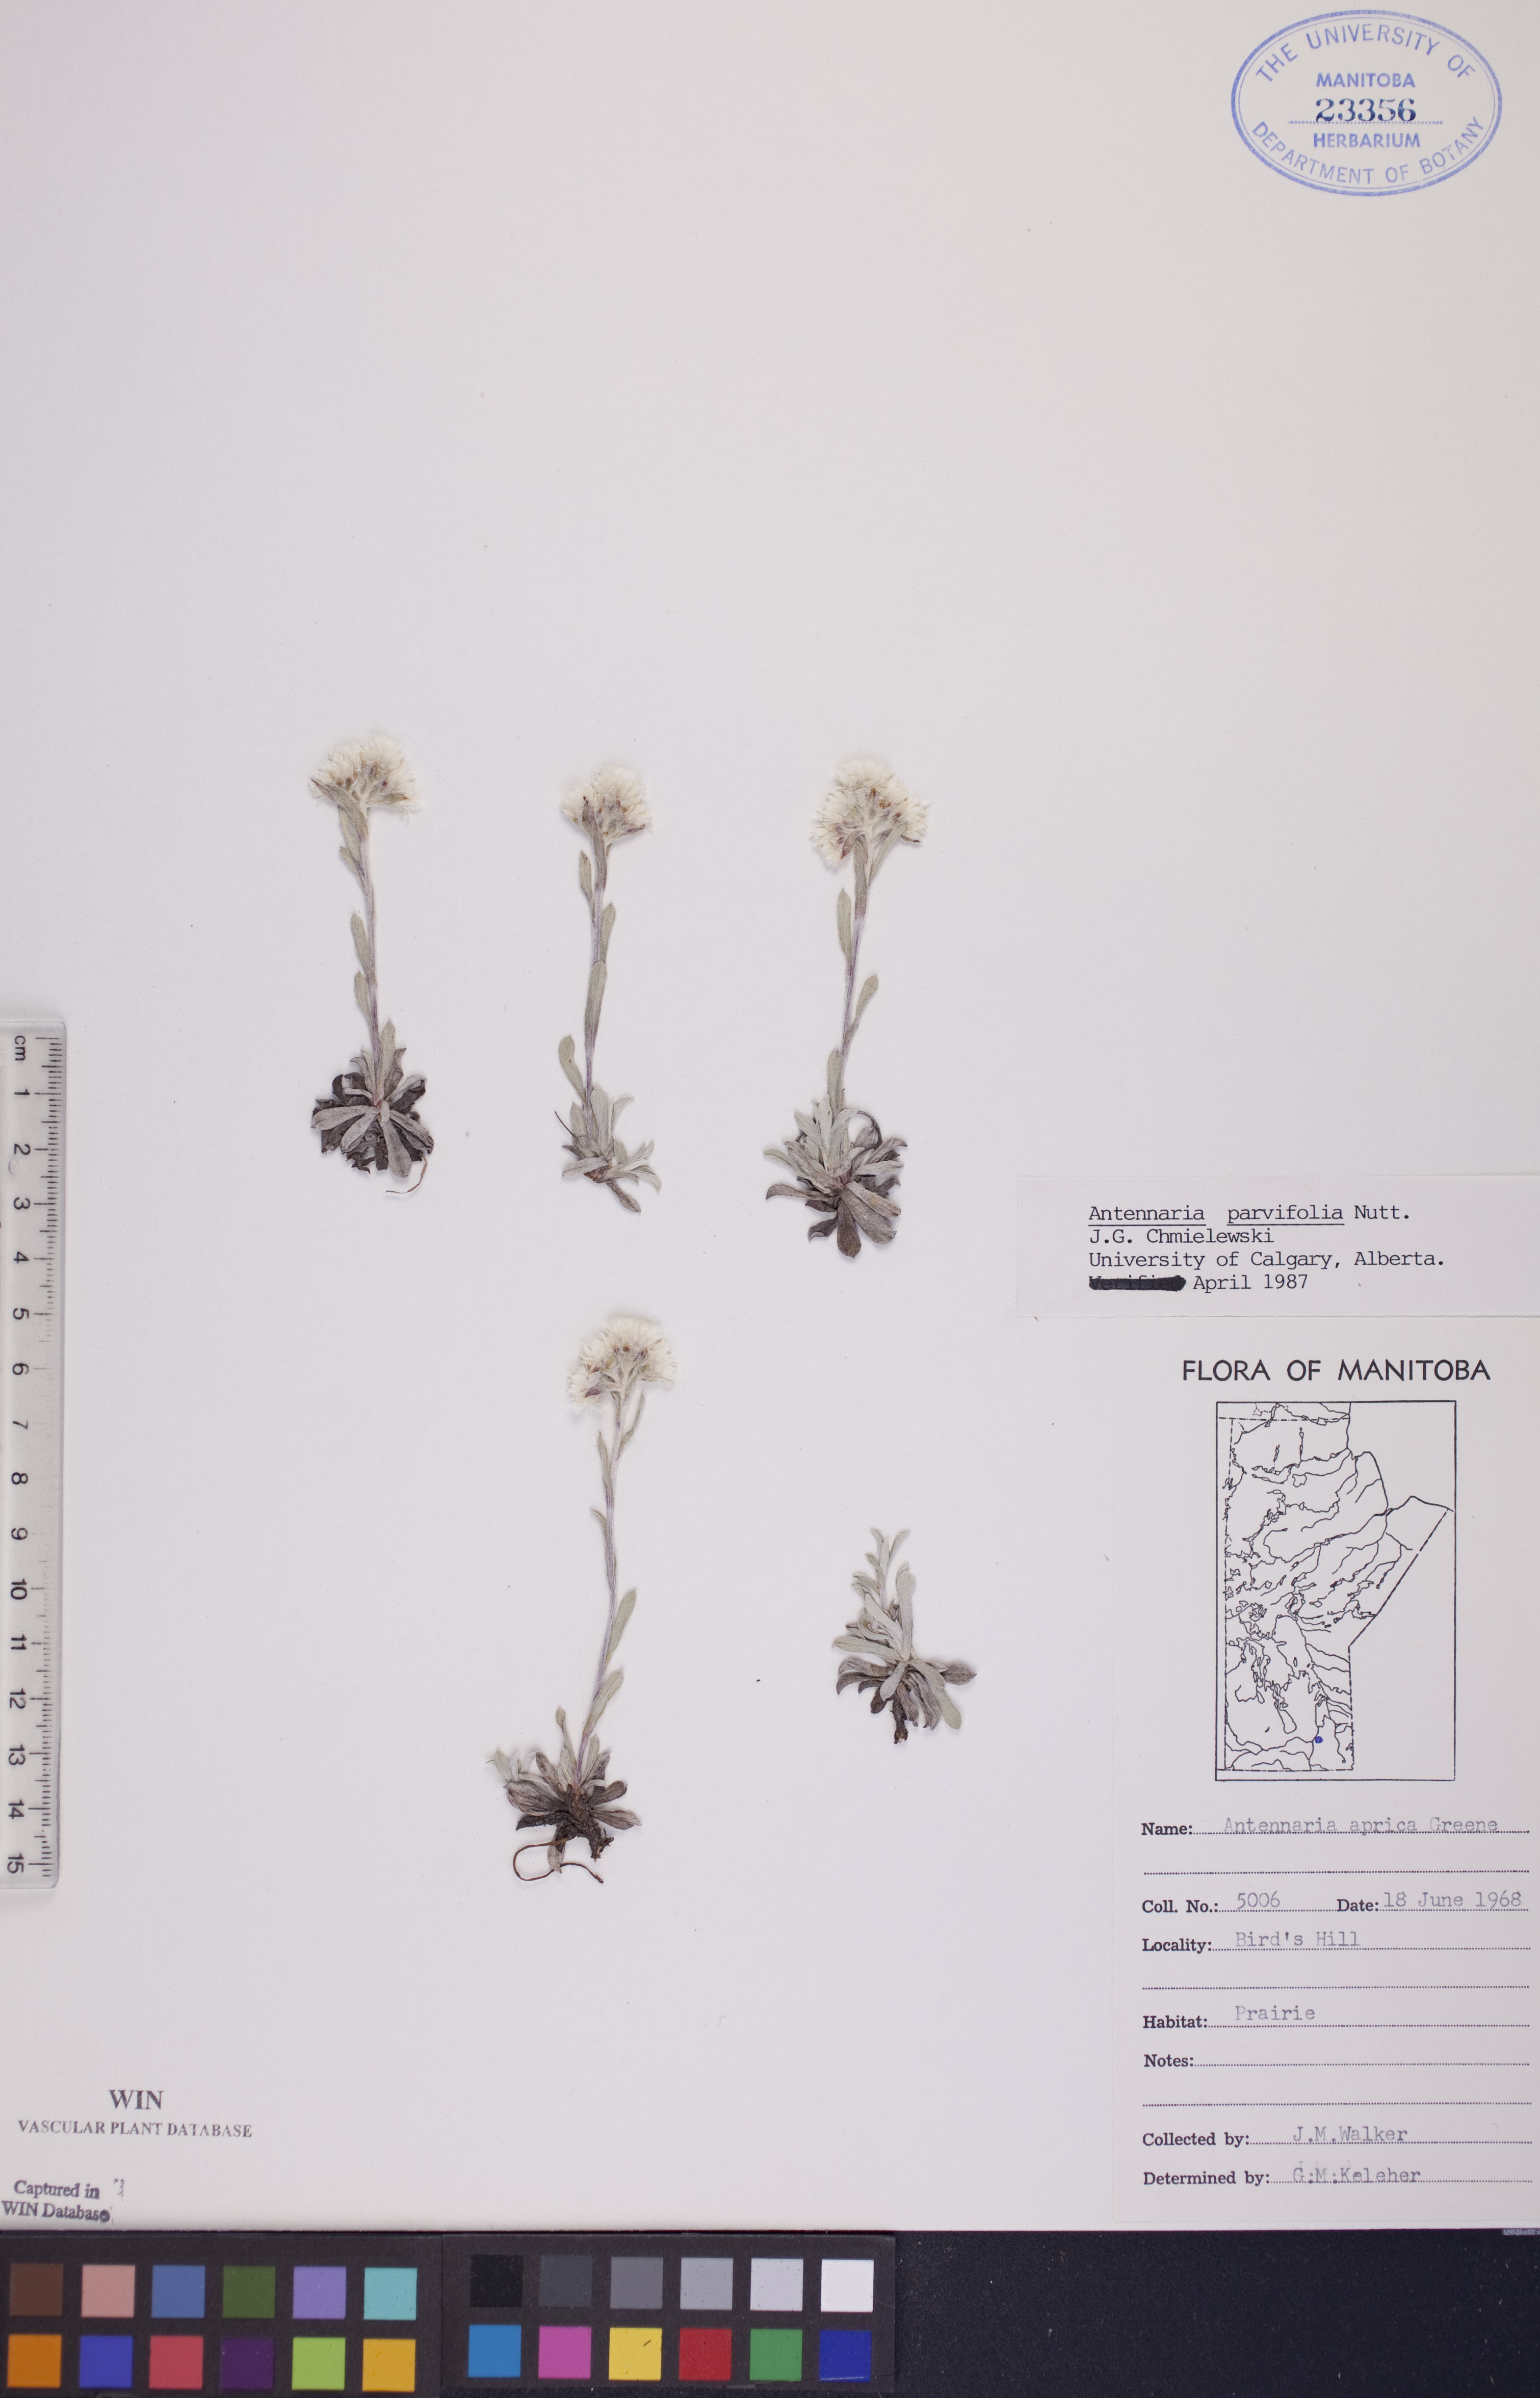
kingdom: Plantae
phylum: Tracheophyta
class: Magnoliopsida
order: Asterales
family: Asteraceae
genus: Antennaria
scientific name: Antennaria parvifolia
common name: Nuttall's pussytoes
